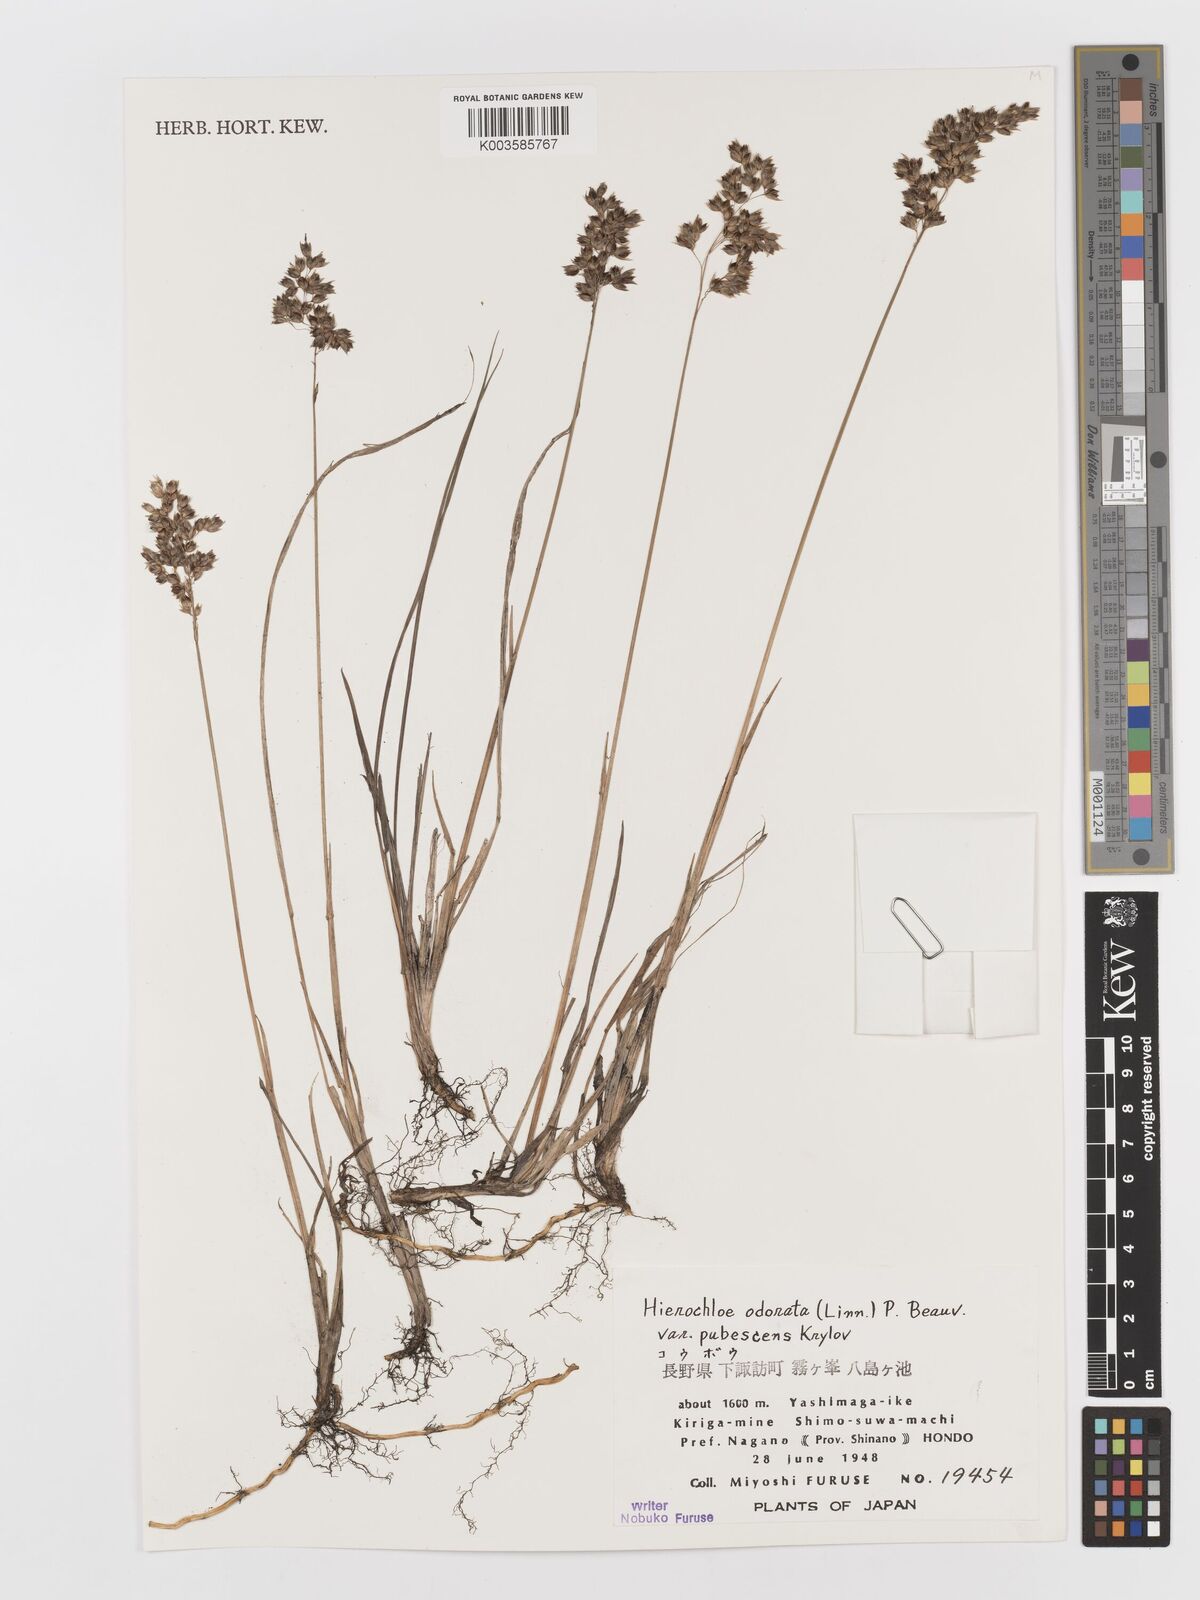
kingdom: Plantae
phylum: Tracheophyta
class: Liliopsida
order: Poales
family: Poaceae
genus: Anthoxanthum
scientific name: Anthoxanthum nitens
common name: Holy grass
